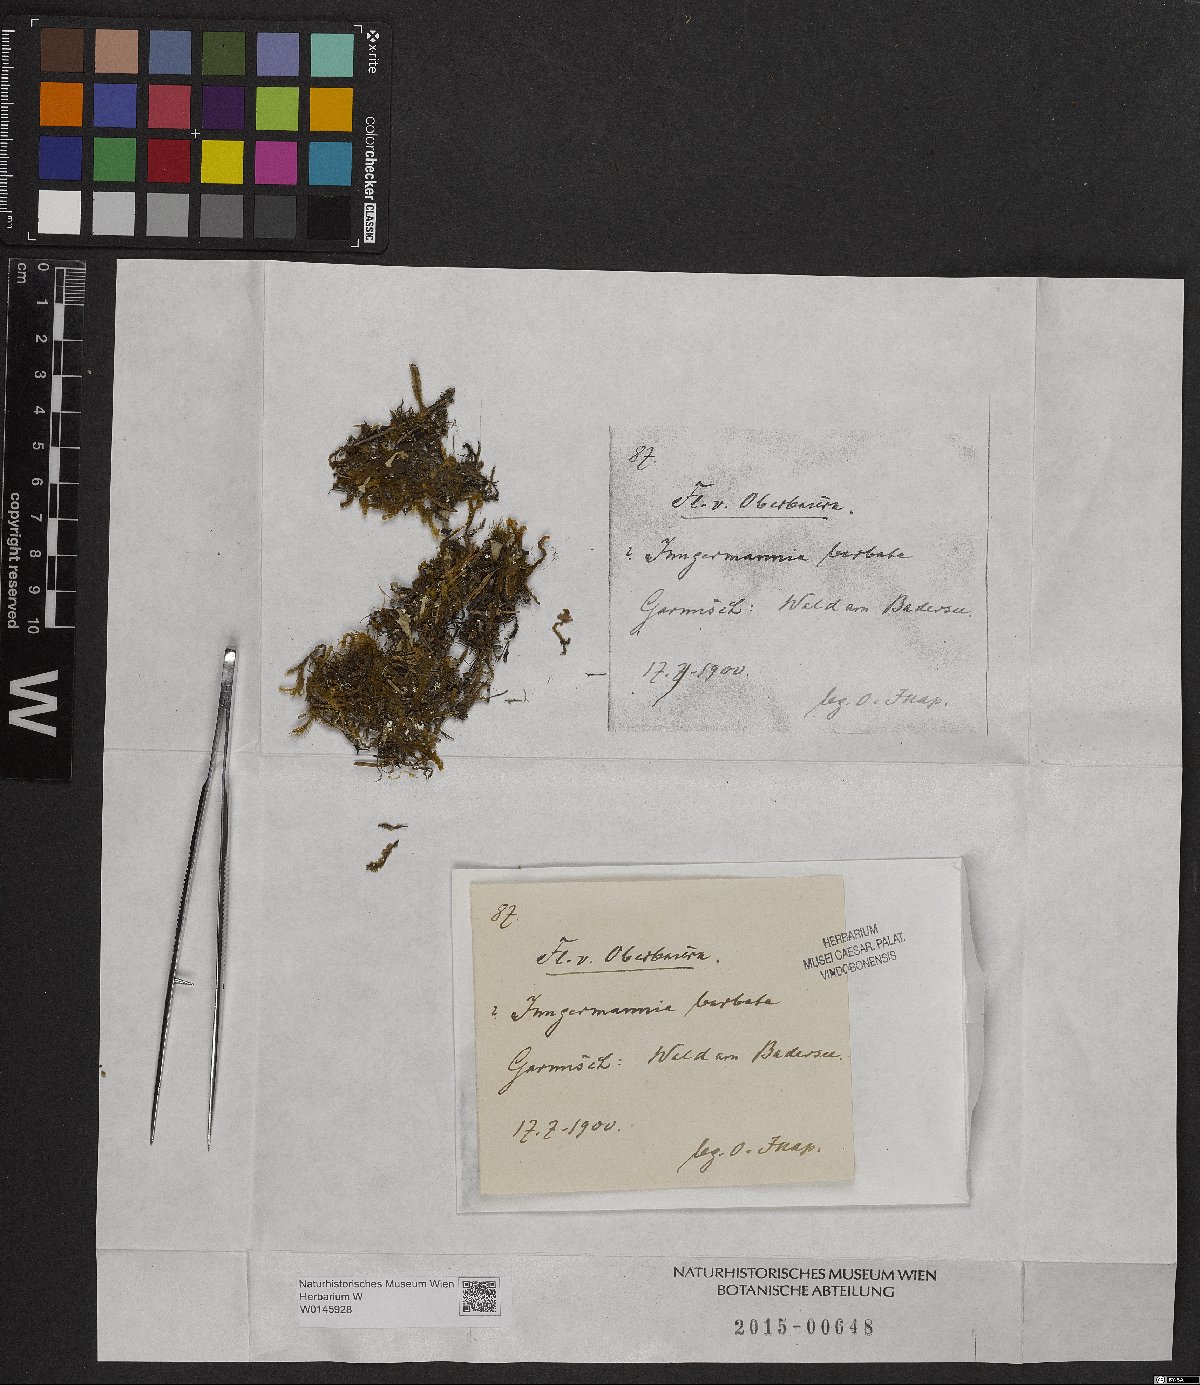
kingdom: Plantae
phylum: Marchantiophyta
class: Jungermanniopsida
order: Jungermanniales
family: Anastrophyllaceae
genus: Barbilophozia
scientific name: Barbilophozia barbata
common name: Bearded pawwort
